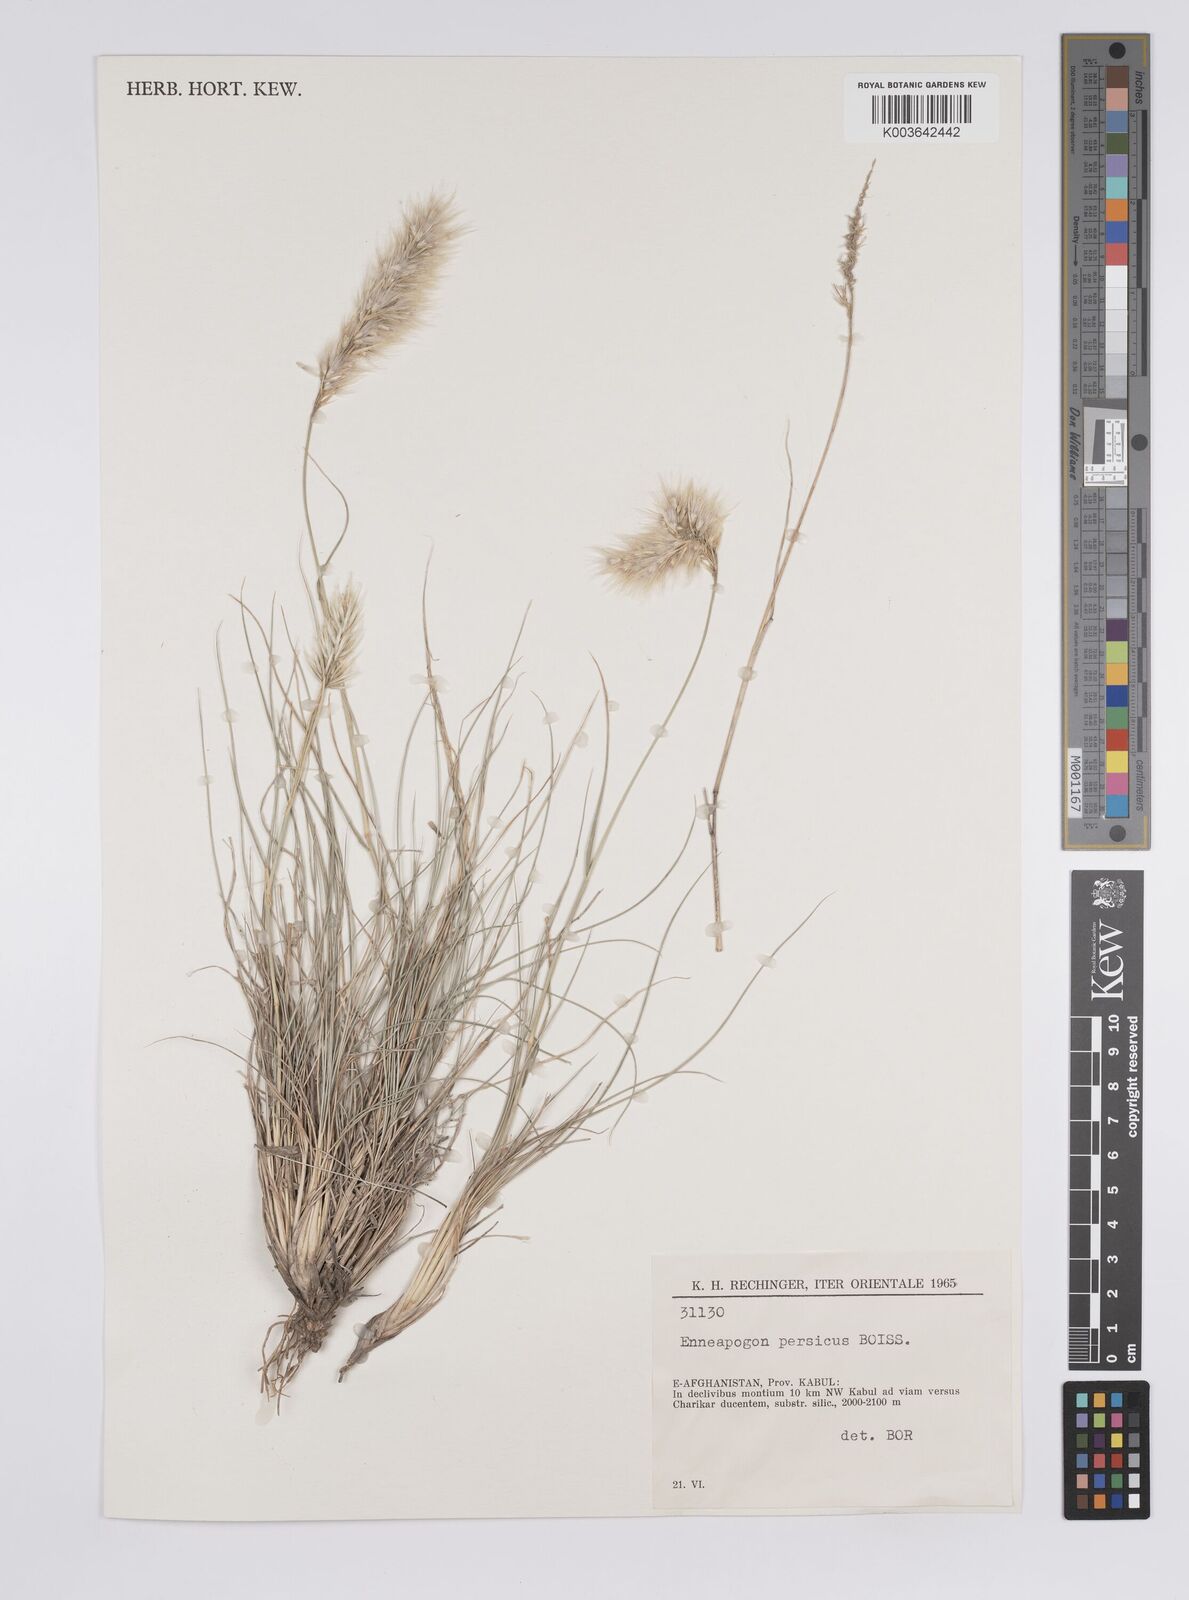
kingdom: Plantae
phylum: Tracheophyta
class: Liliopsida
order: Poales
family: Poaceae
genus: Enneapogon
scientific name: Enneapogon persicus
